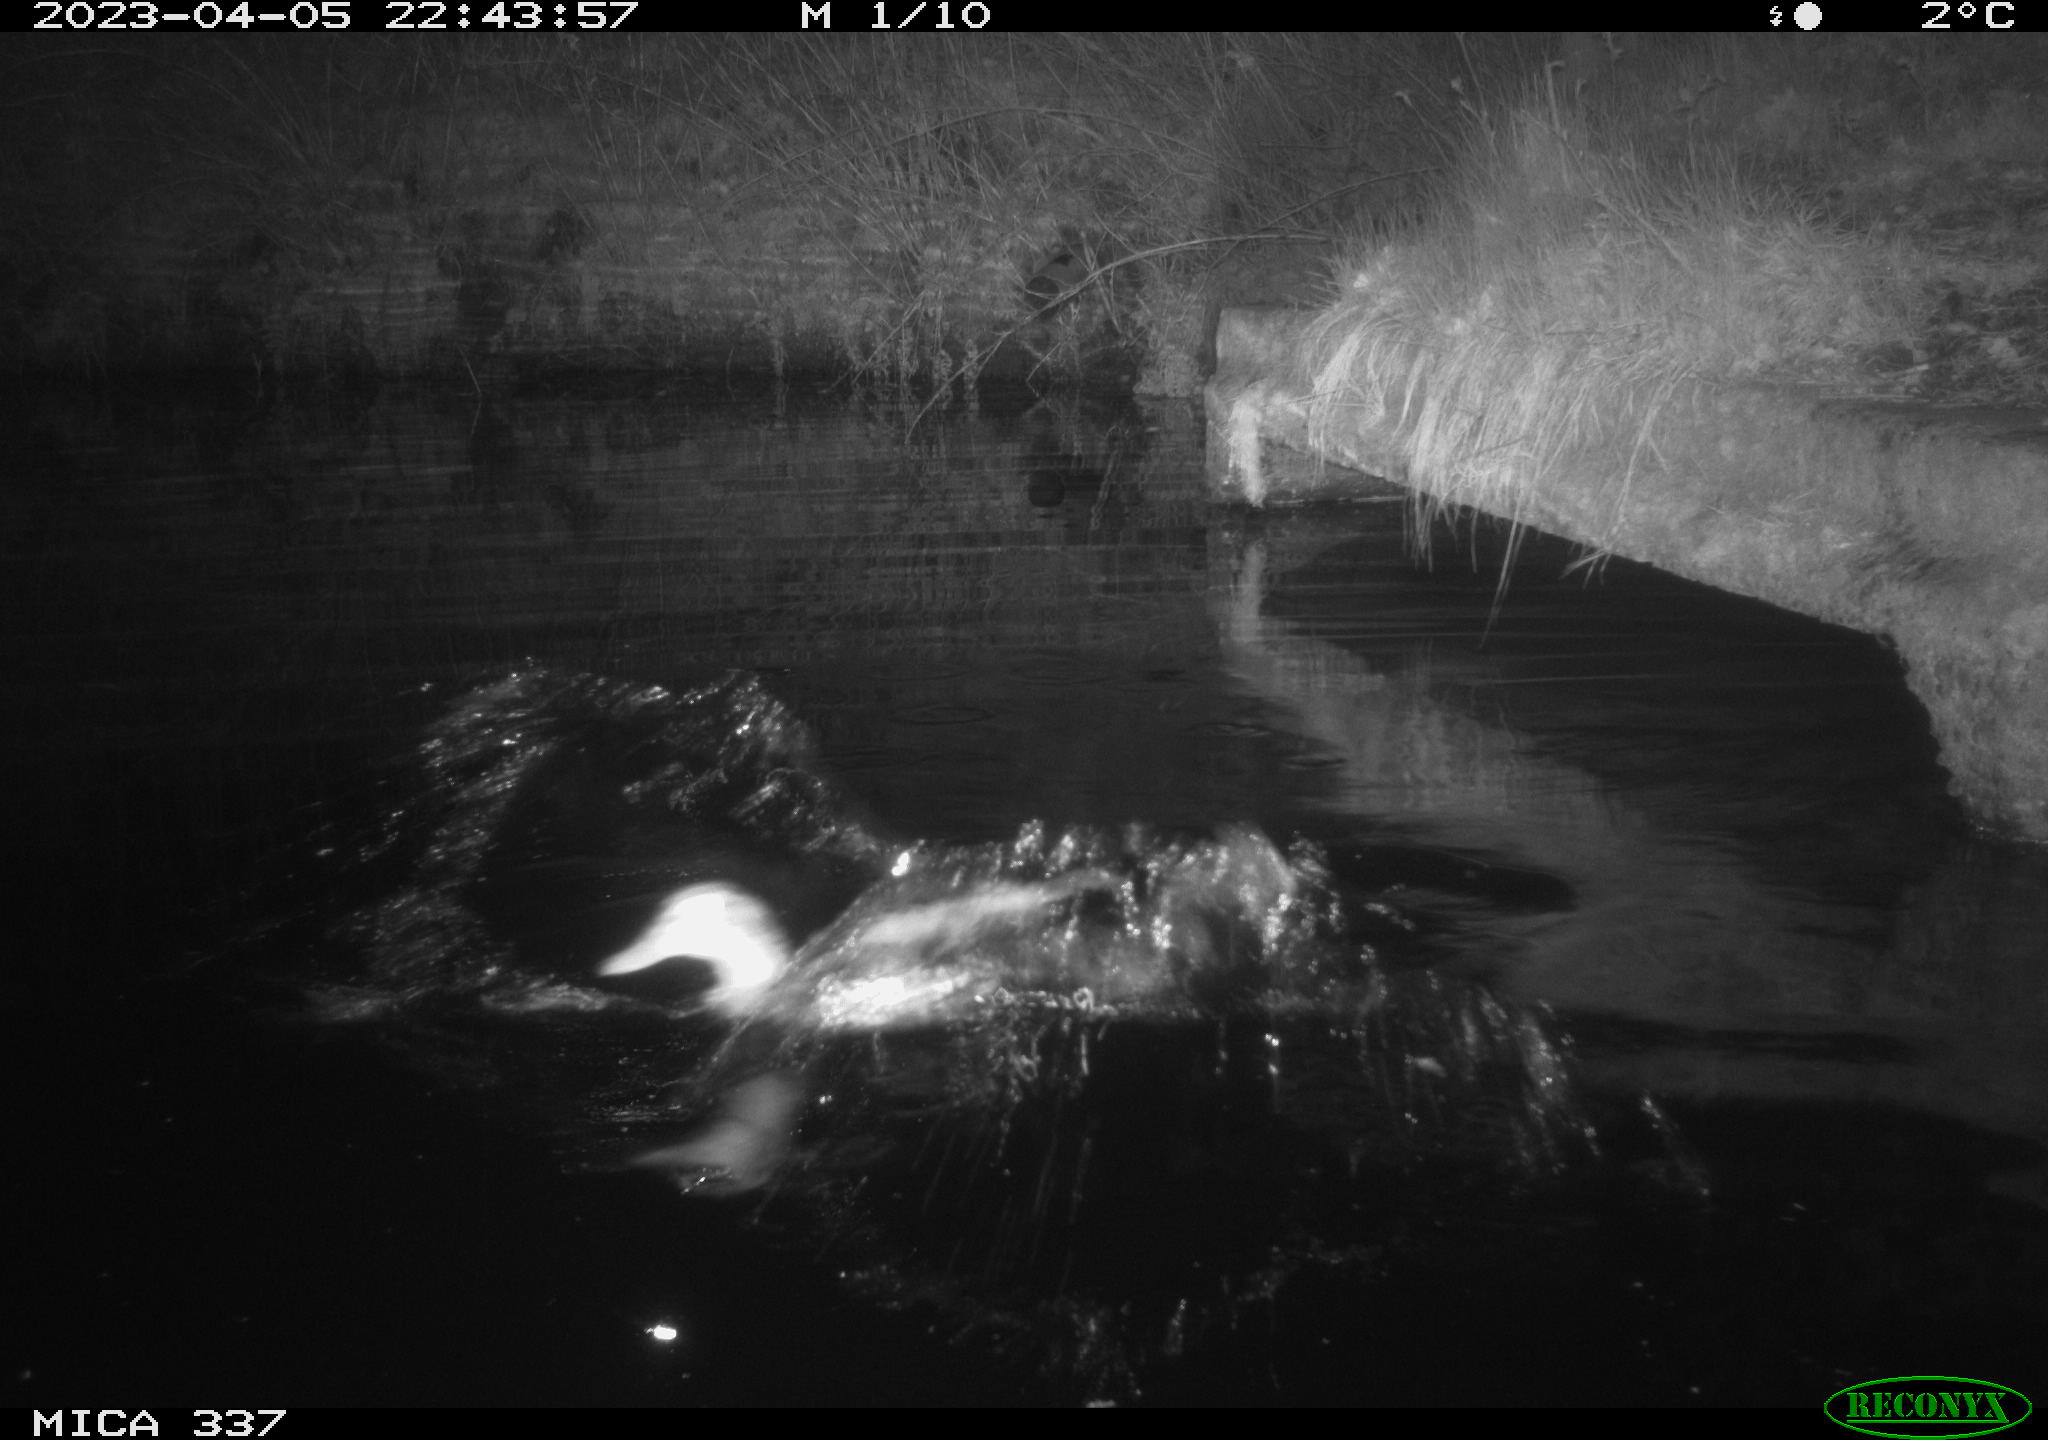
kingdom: Animalia
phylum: Chordata
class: Aves
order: Anseriformes
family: Anatidae
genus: Anas
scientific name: Anas platyrhynchos
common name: Mallard
